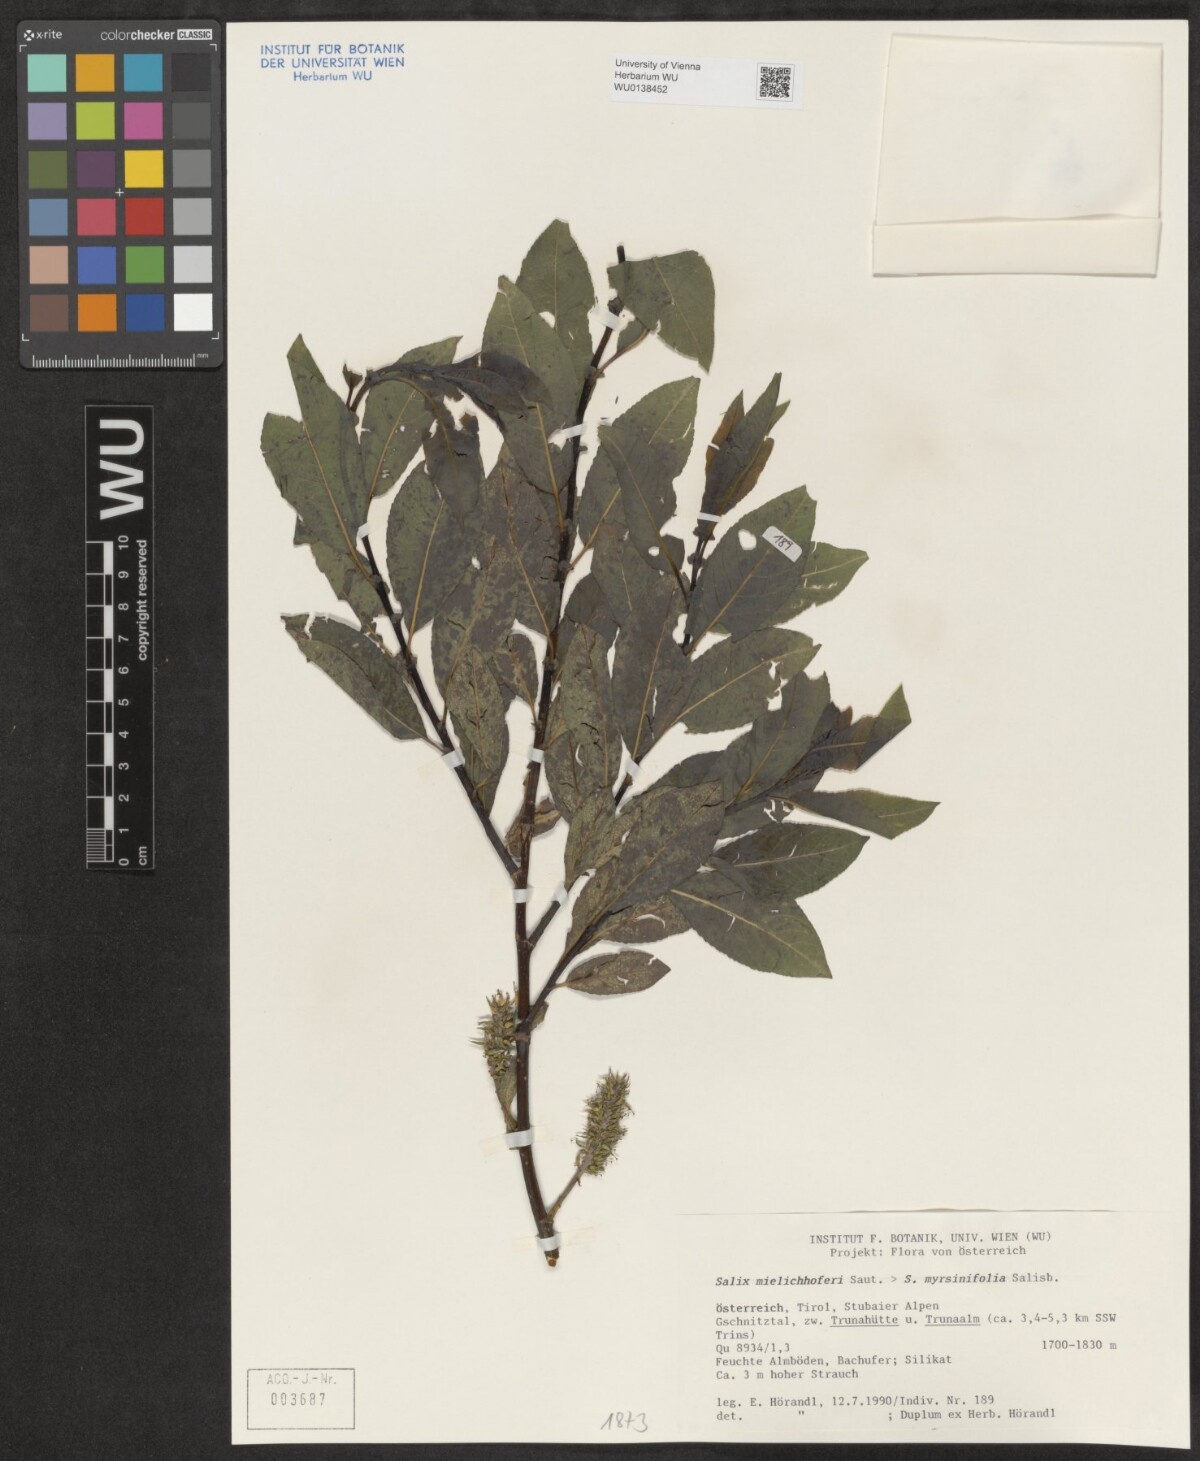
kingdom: Plantae
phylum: Tracheophyta
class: Magnoliopsida
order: Malpighiales
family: Salicaceae
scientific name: Salicaceae
